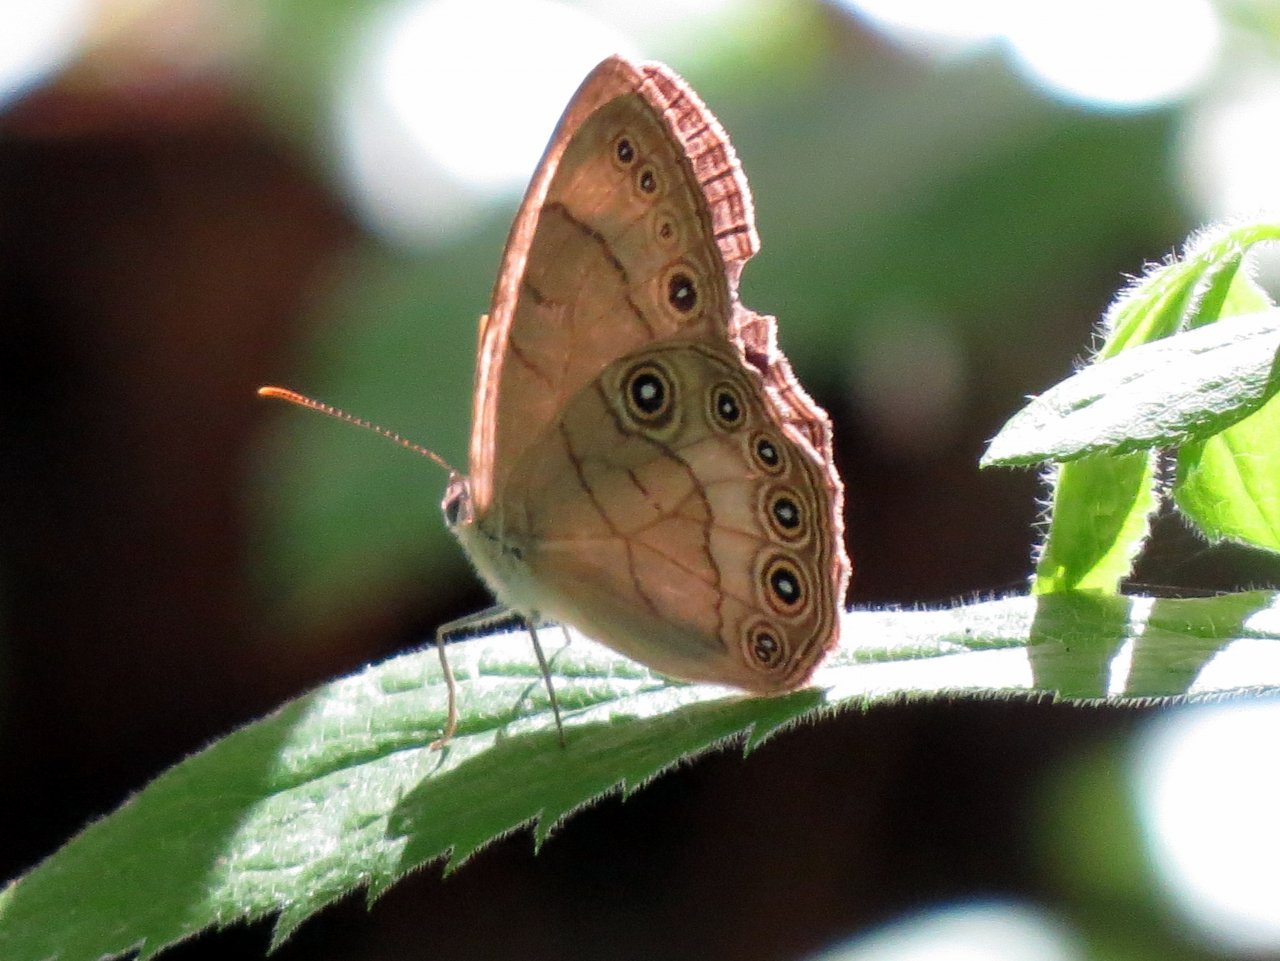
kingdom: Animalia
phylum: Arthropoda
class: Insecta
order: Lepidoptera
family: Nymphalidae
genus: Lethe
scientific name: Lethe eurydice
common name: Appalachian Eyed Brown
